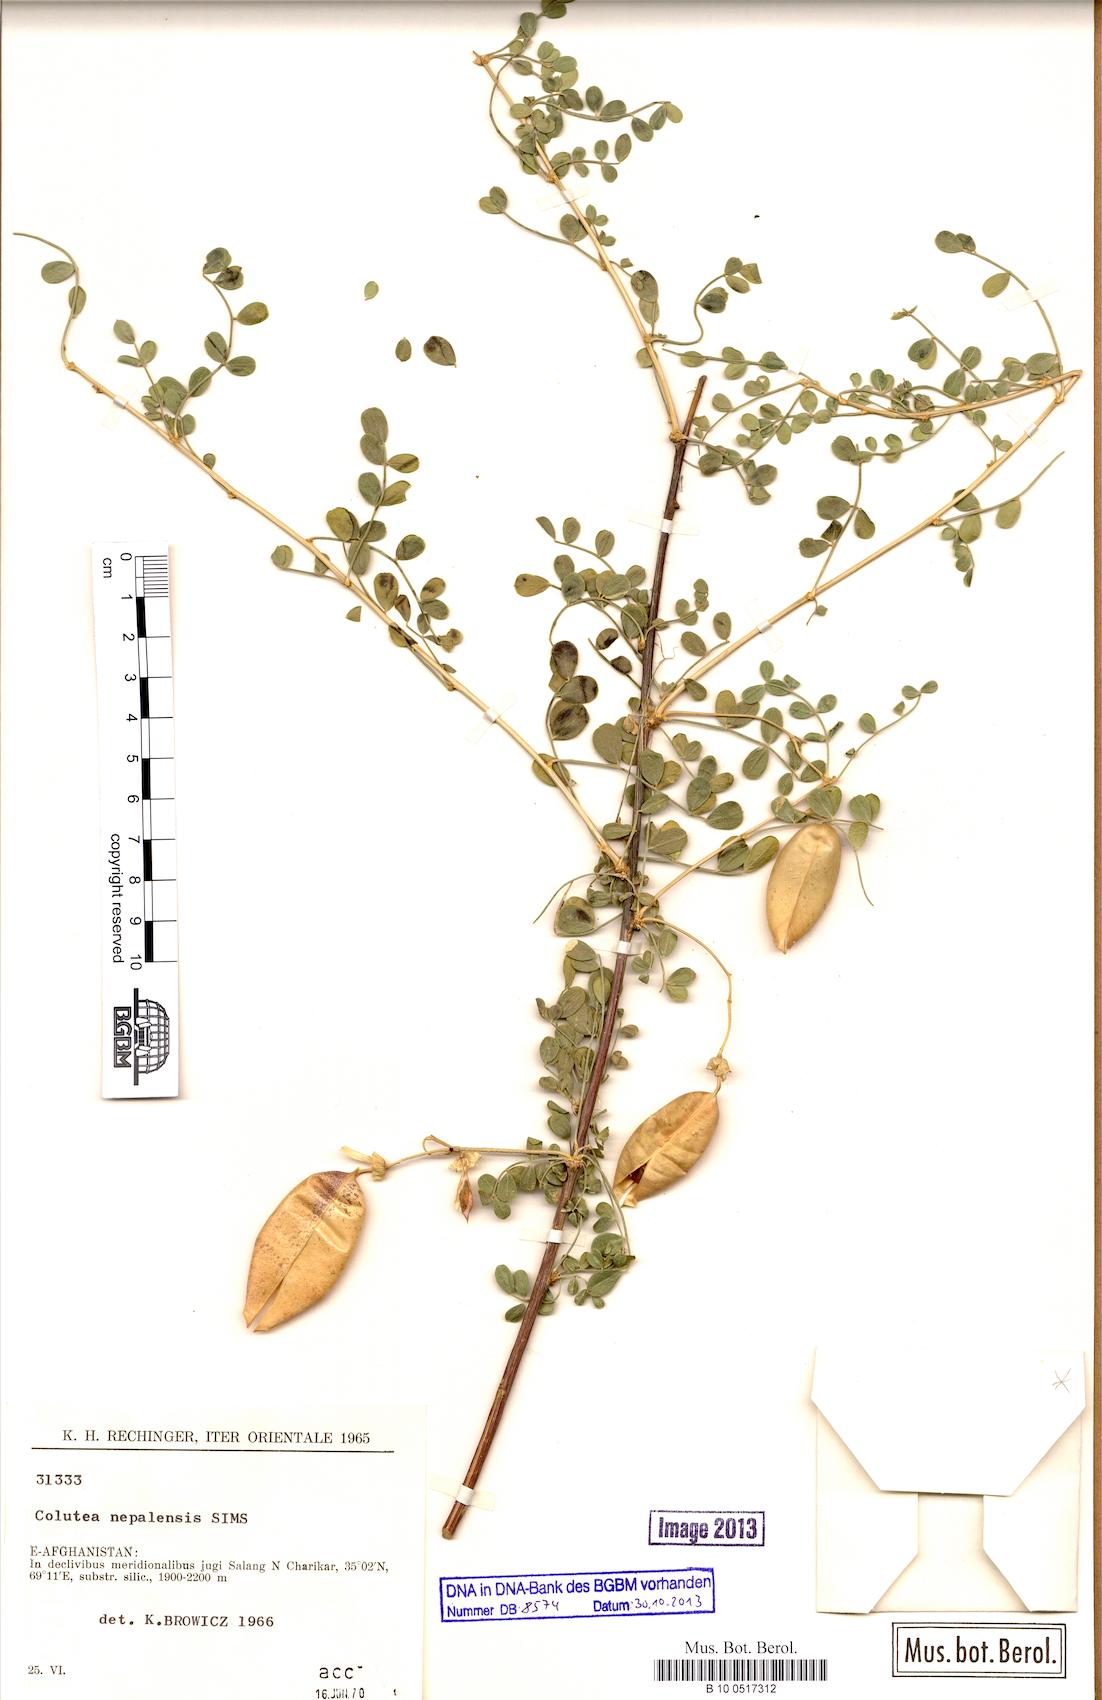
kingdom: Plantae
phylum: Tracheophyta
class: Magnoliopsida
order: Fabales
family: Fabaceae
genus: Colutea
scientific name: Colutea nepalensis
